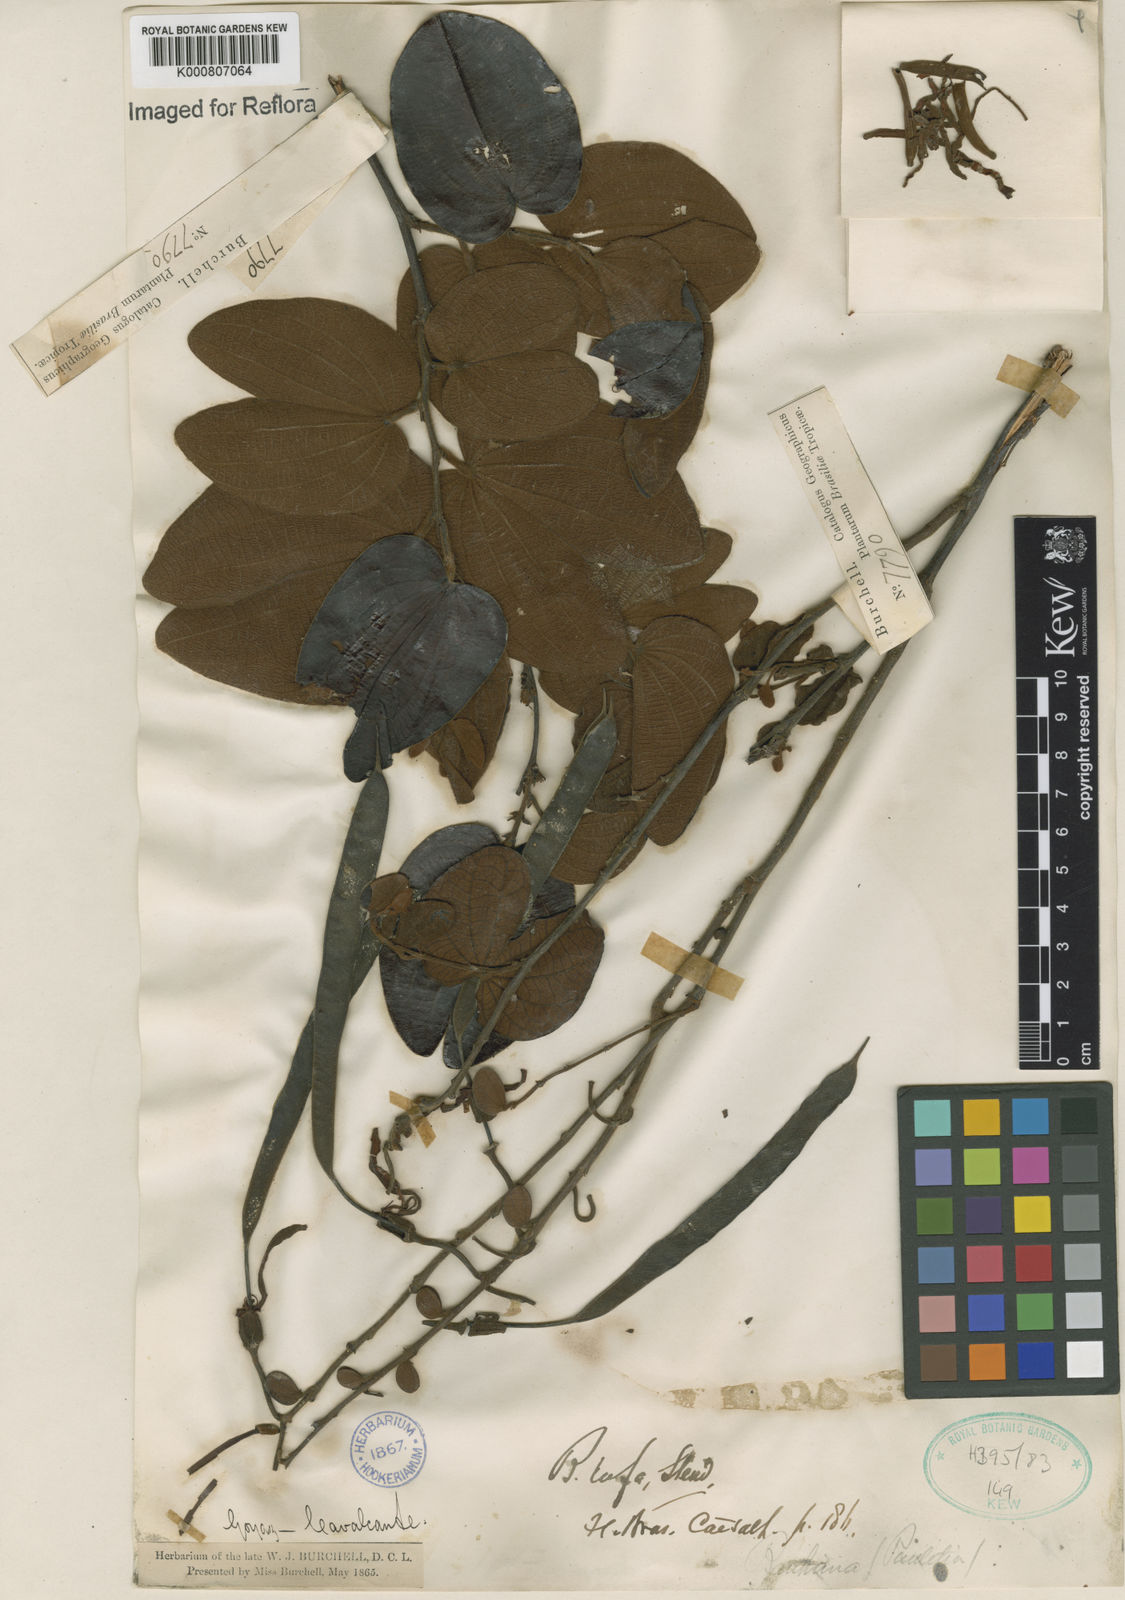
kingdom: Plantae
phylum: Tracheophyta
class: Magnoliopsida
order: Fabales
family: Fabaceae
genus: Bauhinia
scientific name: Bauhinia rufa
